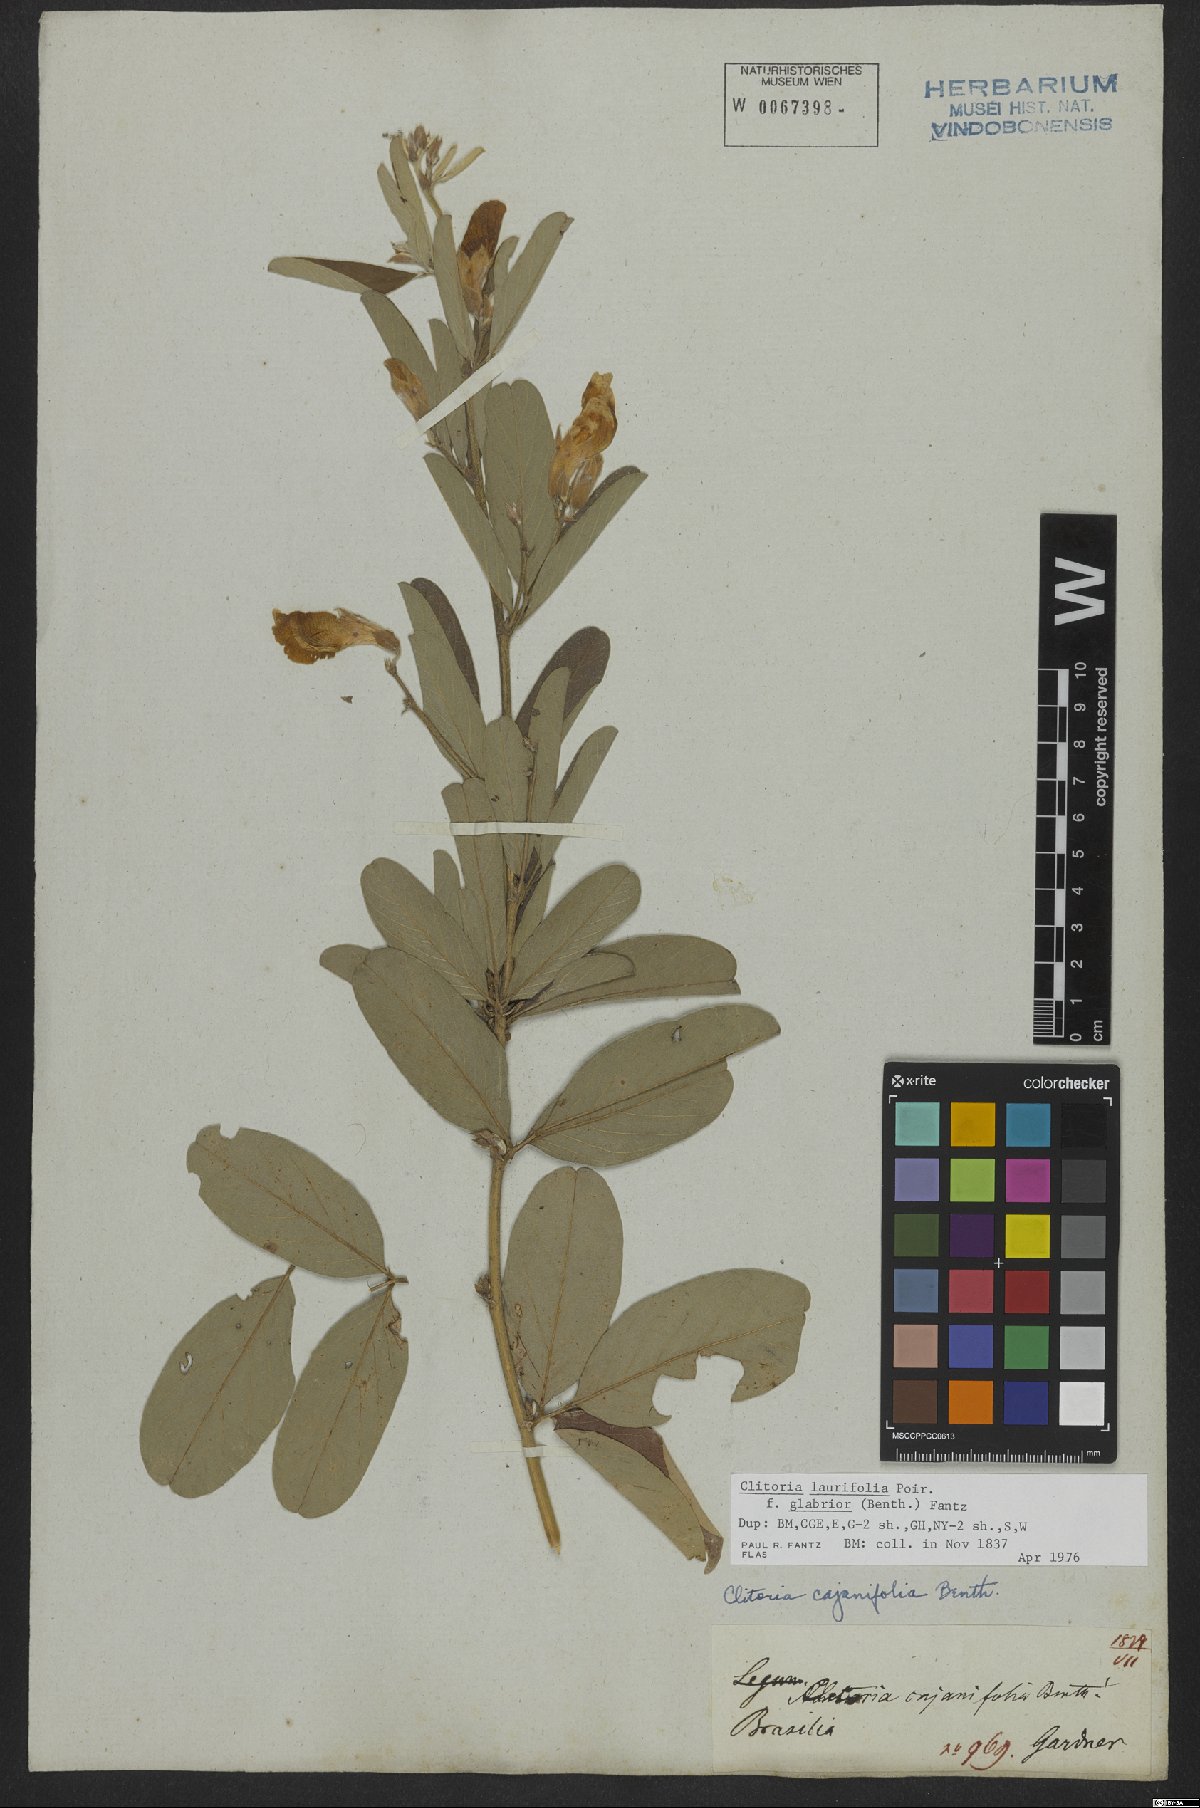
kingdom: Plantae
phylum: Tracheophyta
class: Magnoliopsida
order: Fabales
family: Fabaceae
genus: Clitoria
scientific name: Clitoria laurifolia
